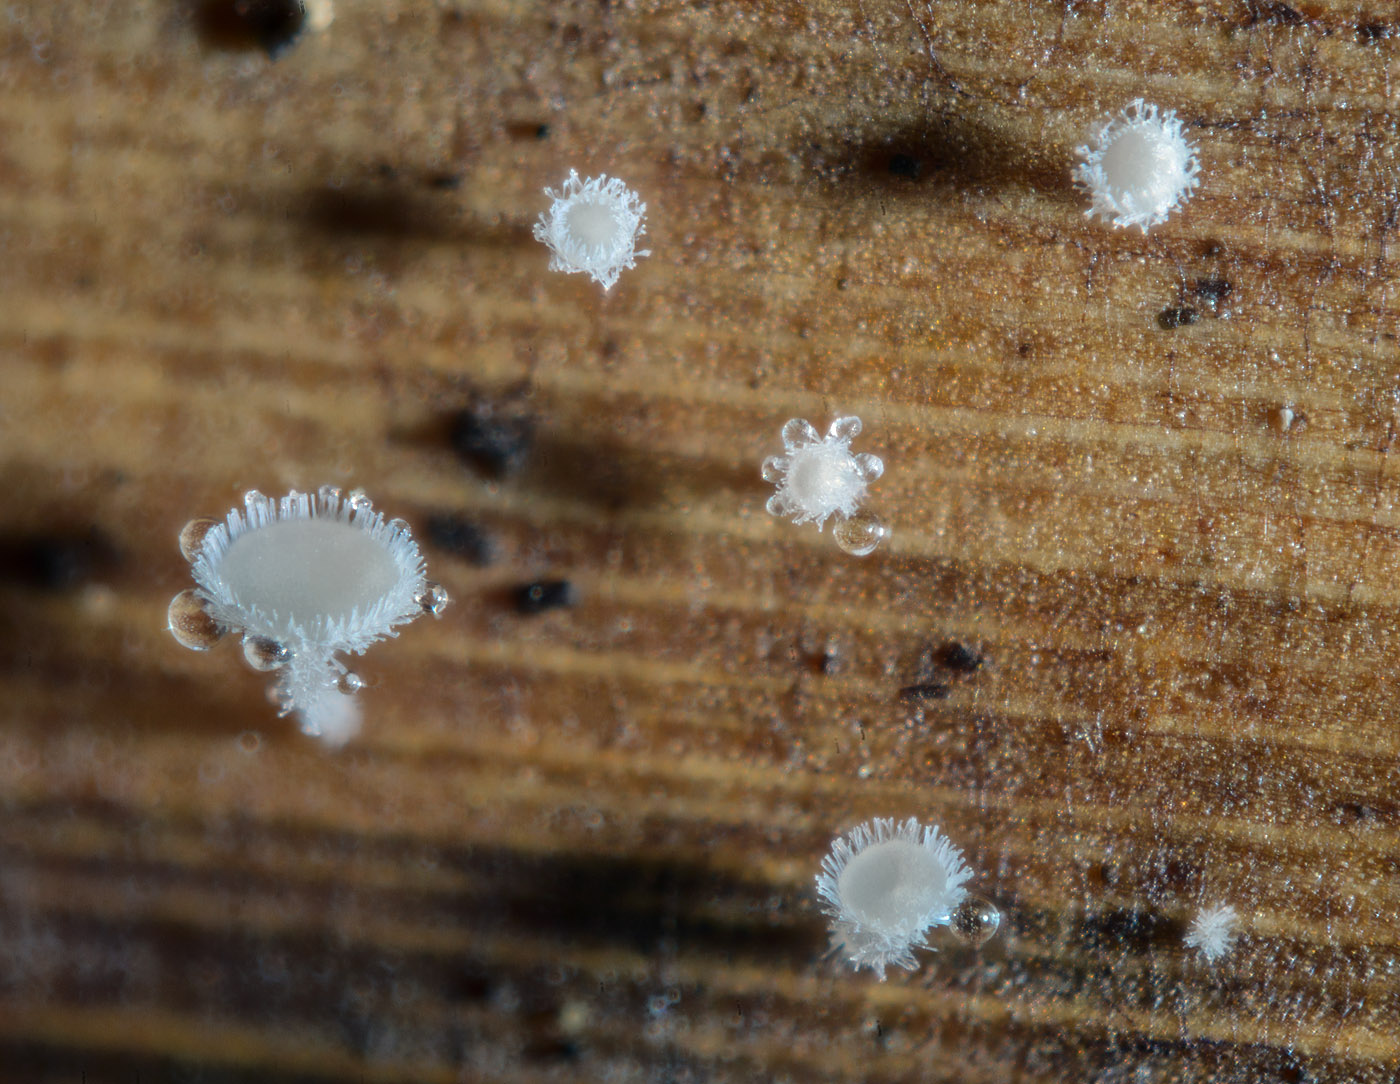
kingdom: Fungi
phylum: Ascomycota
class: Leotiomycetes
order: Helotiales
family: Lachnaceae
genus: Lachnum
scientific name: Lachnum sesleriae
